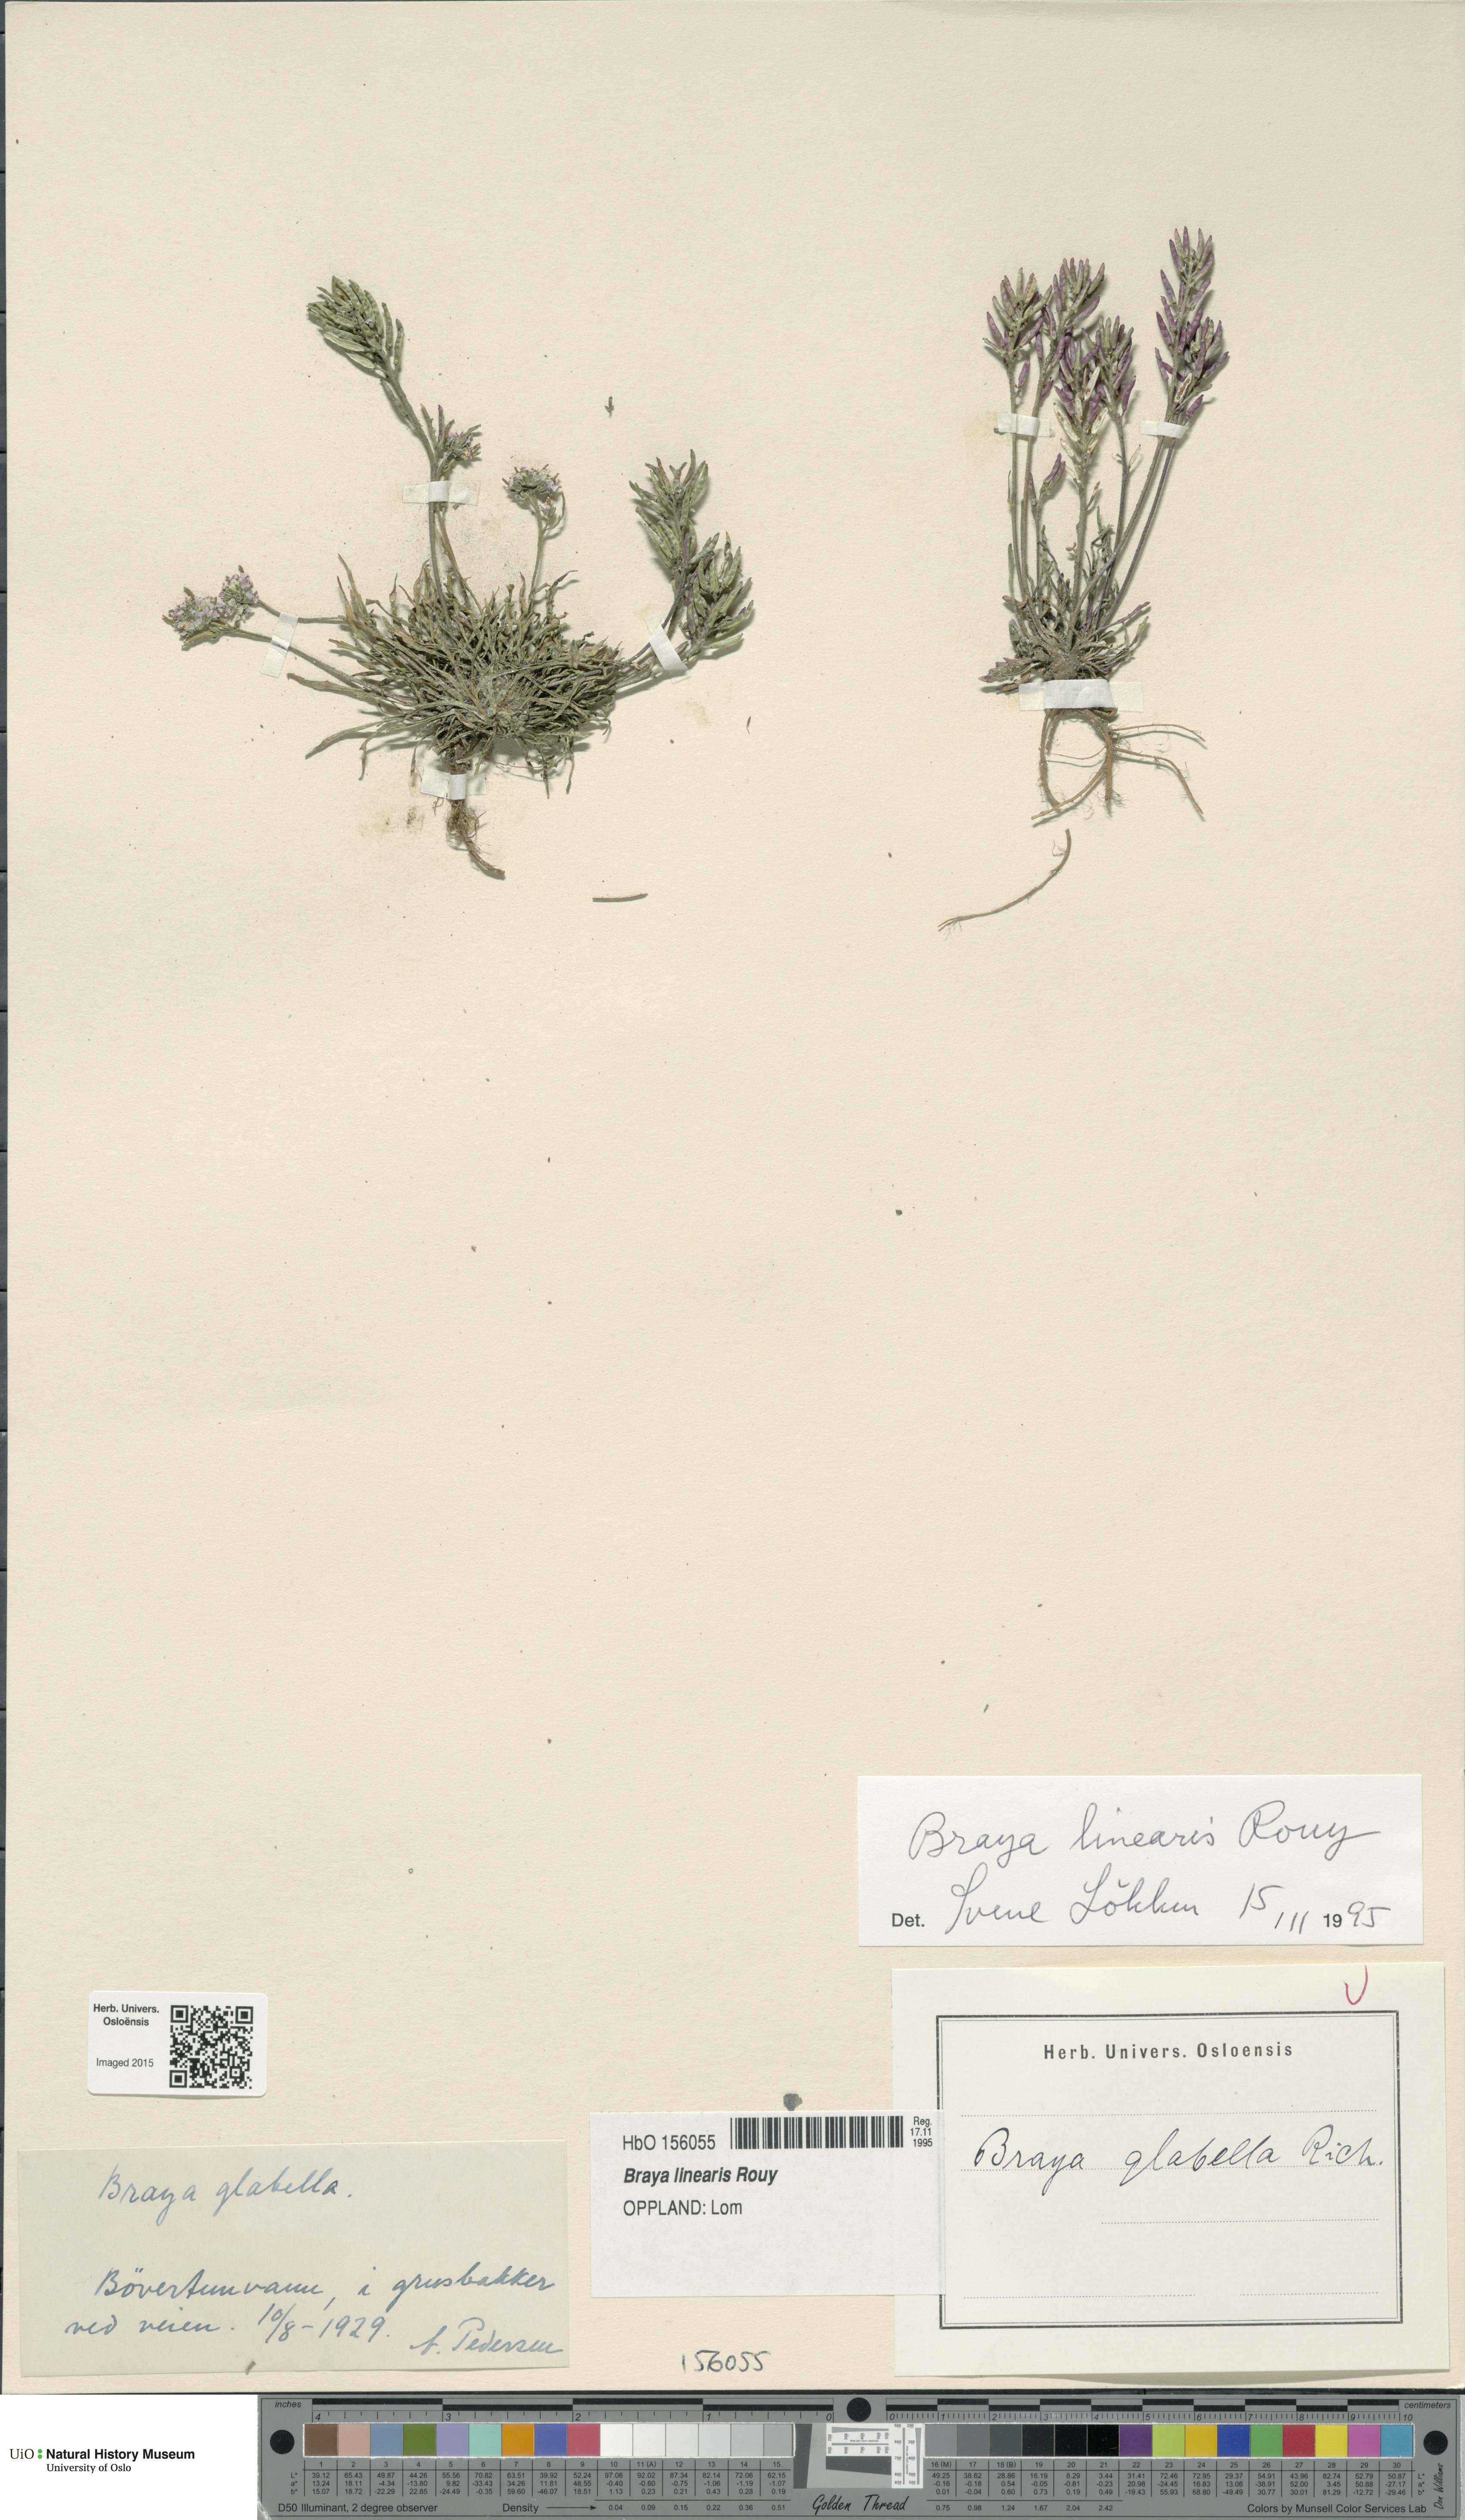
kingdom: Plantae
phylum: Tracheophyta
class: Magnoliopsida
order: Brassicales
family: Brassicaceae
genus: Braya
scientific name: Braya linearis
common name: Narrow-fruit braya
